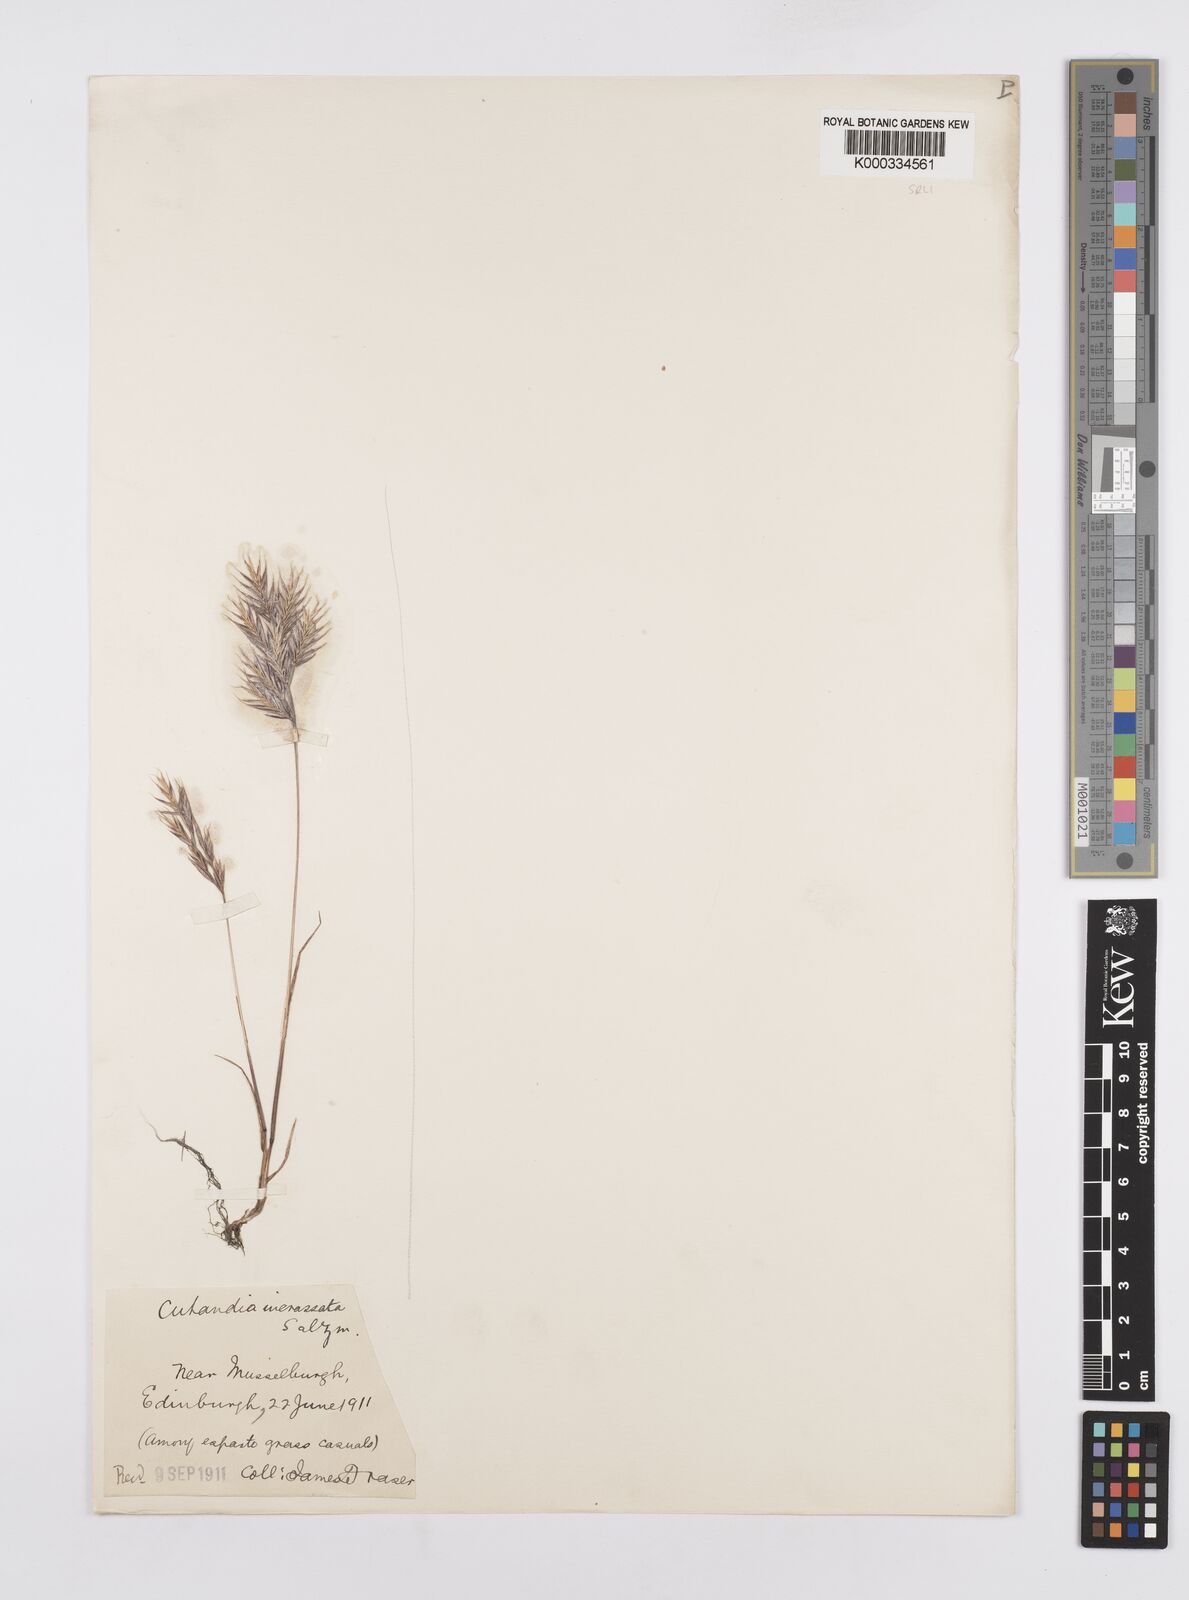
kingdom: Plantae
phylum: Tracheophyta
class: Liliopsida
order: Poales
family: Poaceae
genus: Vulpiella
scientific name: Vulpiella stipoides
